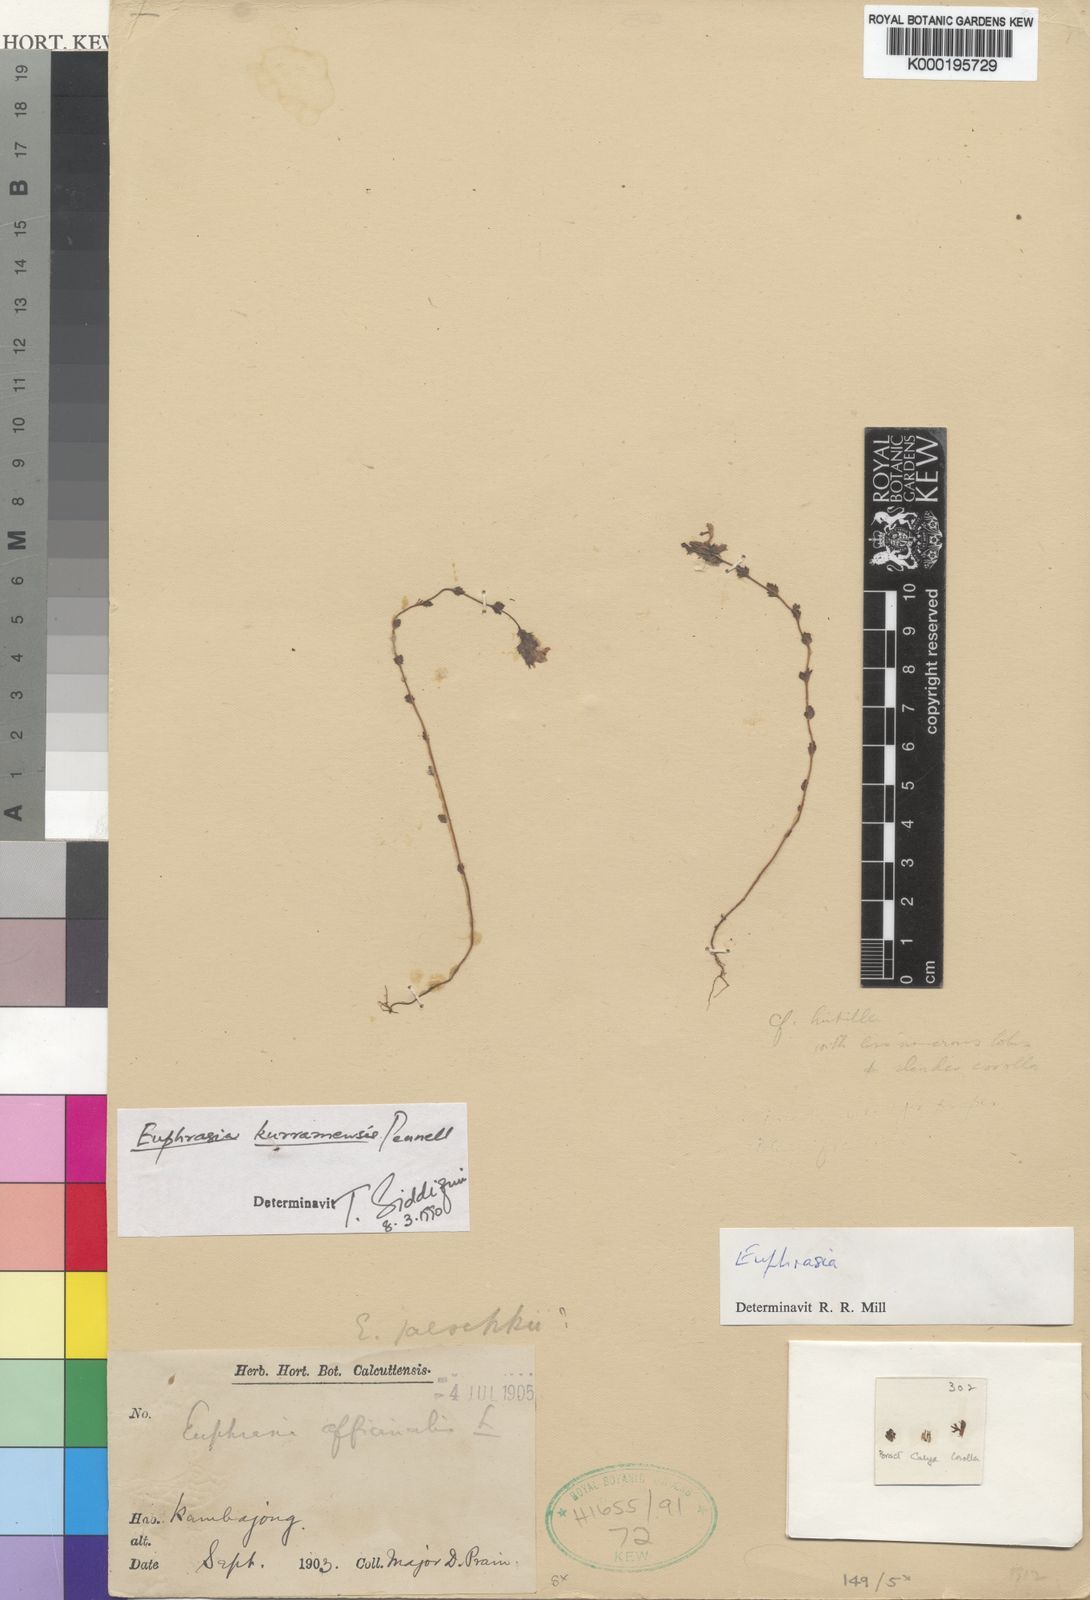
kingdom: Plantae
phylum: Tracheophyta
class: Magnoliopsida
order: Lamiales
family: Orobanchaceae
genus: Euphrasia
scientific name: Euphrasia himalayica
